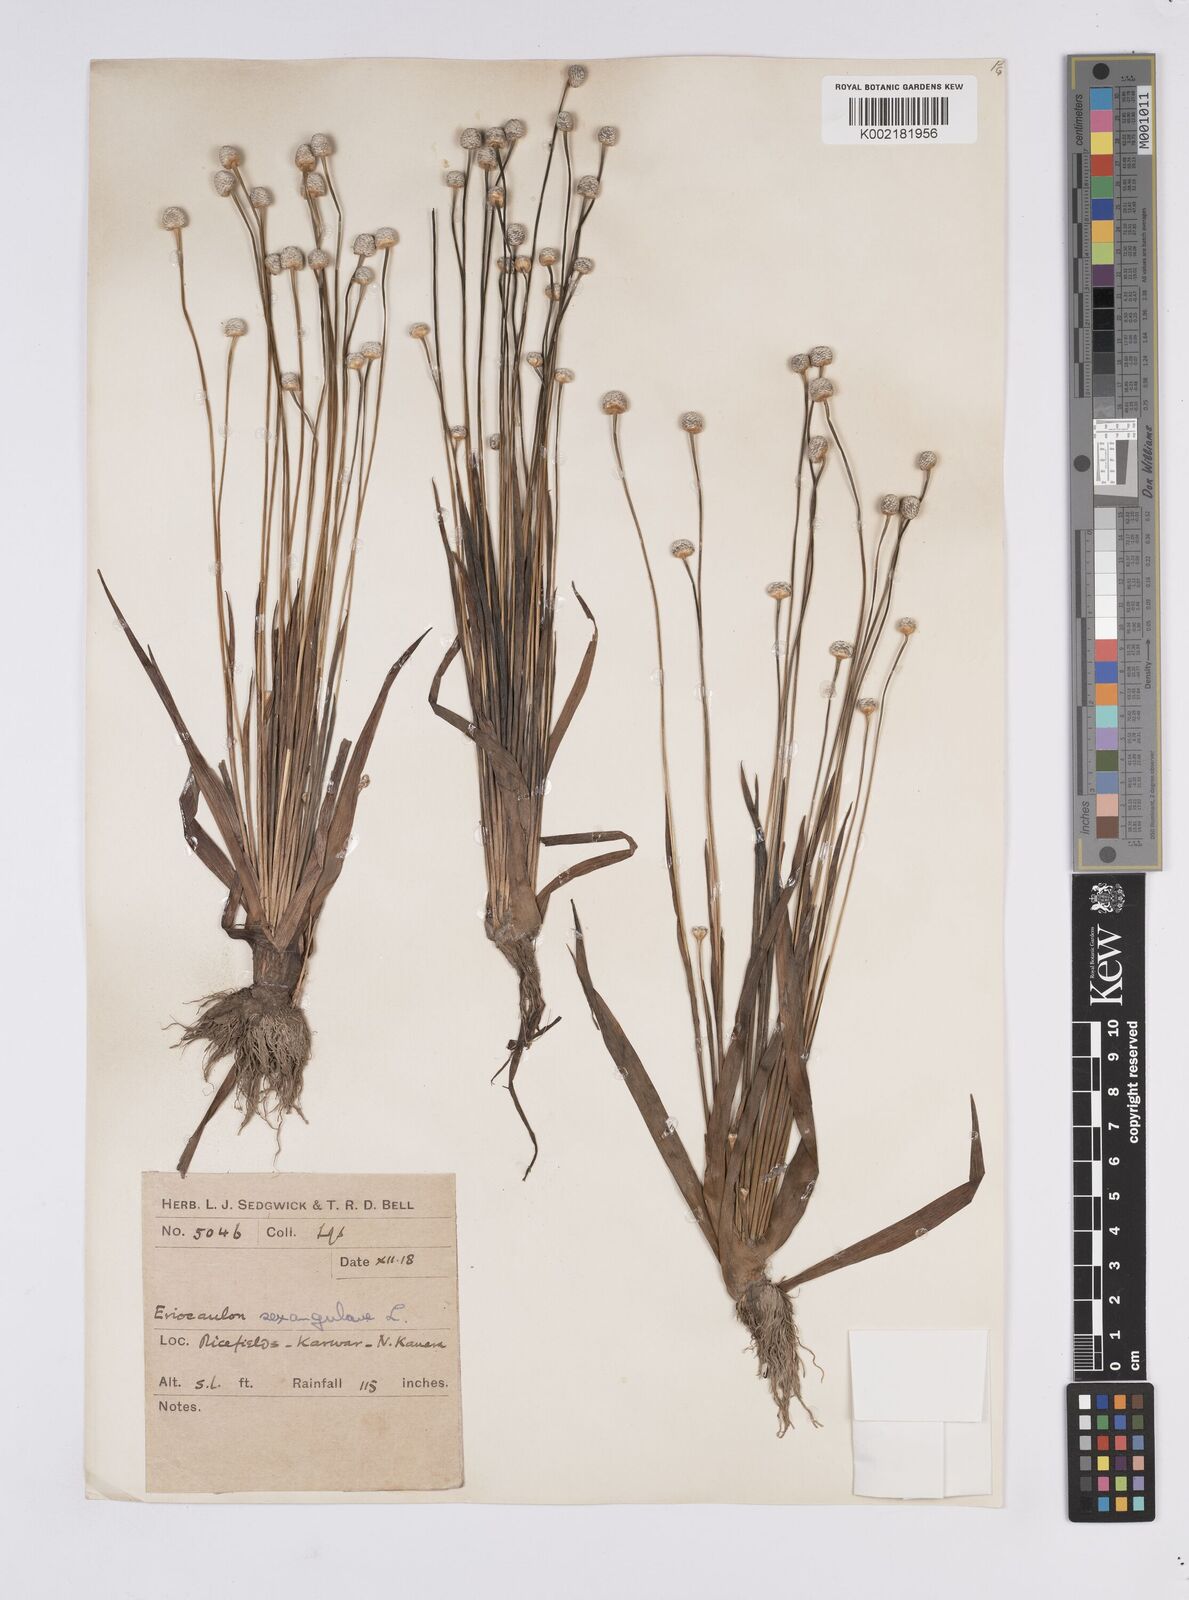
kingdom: Plantae
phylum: Tracheophyta
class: Liliopsida
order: Poales
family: Eriocaulaceae
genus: Eriocaulon
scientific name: Eriocaulon sexangulare
